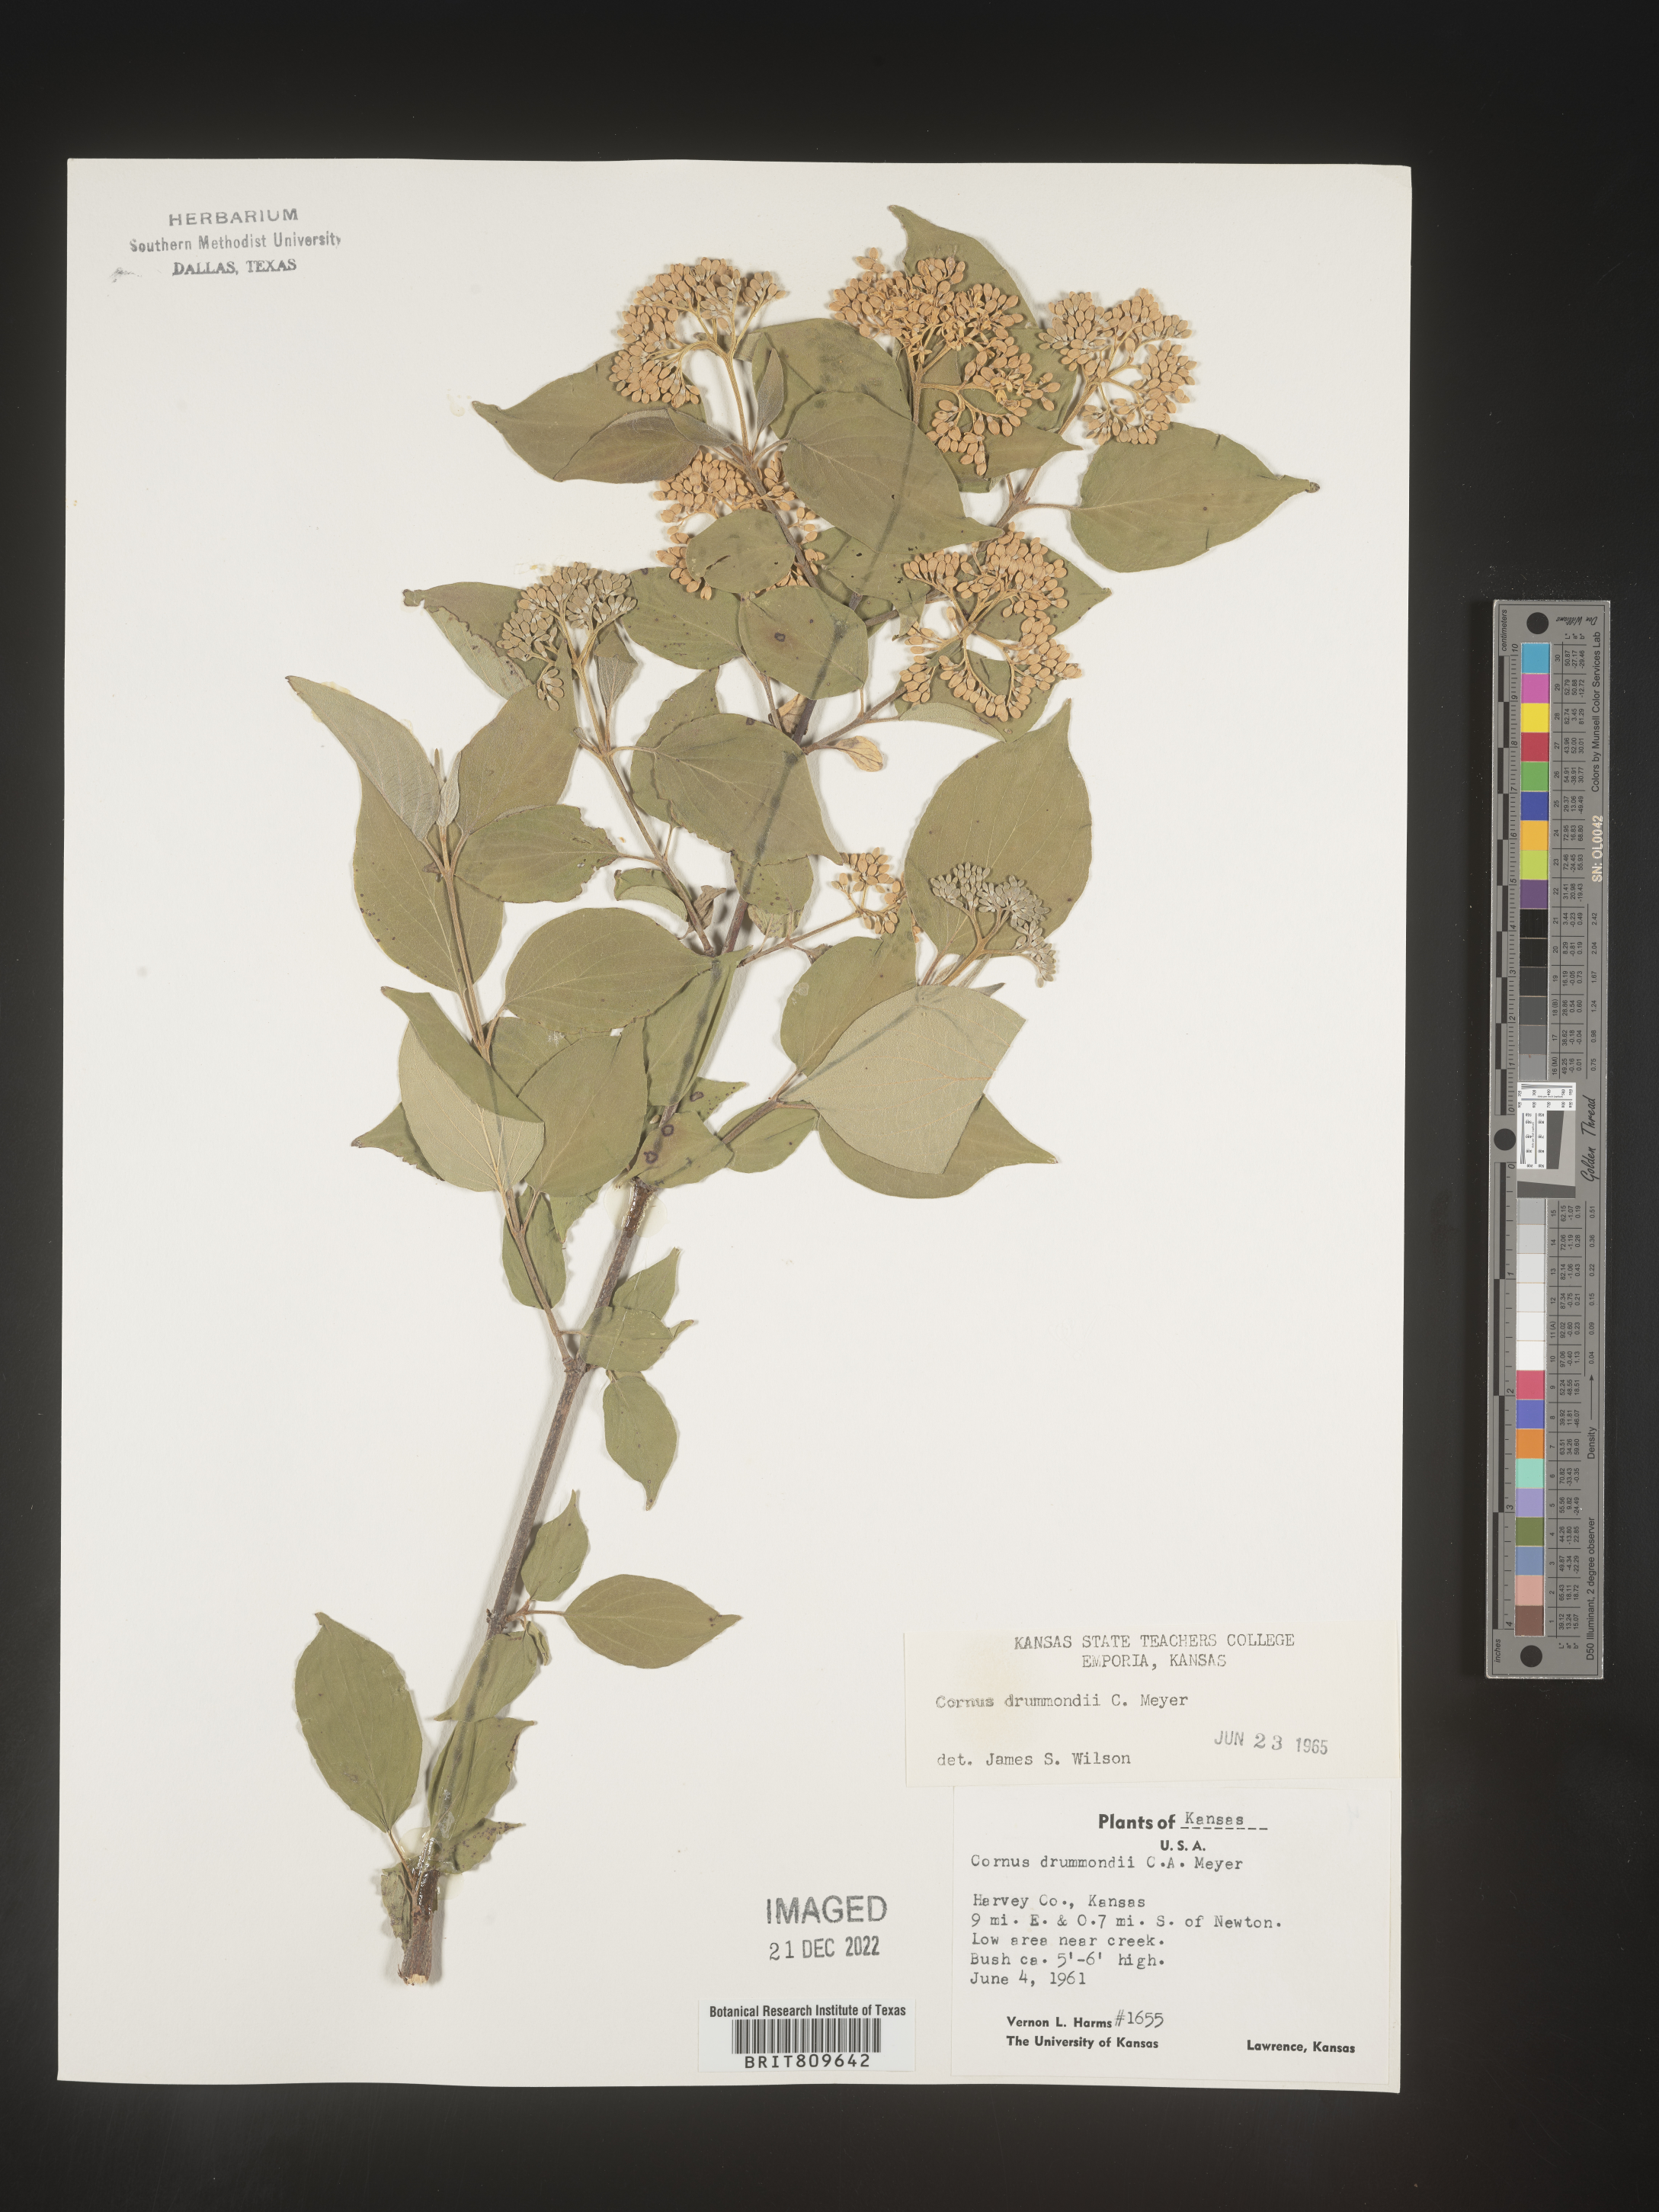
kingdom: Plantae
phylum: Tracheophyta
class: Magnoliopsida
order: Cornales
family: Cornaceae
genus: Cornus
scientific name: Cornus drummondii
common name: Rough-leaf dogwood
